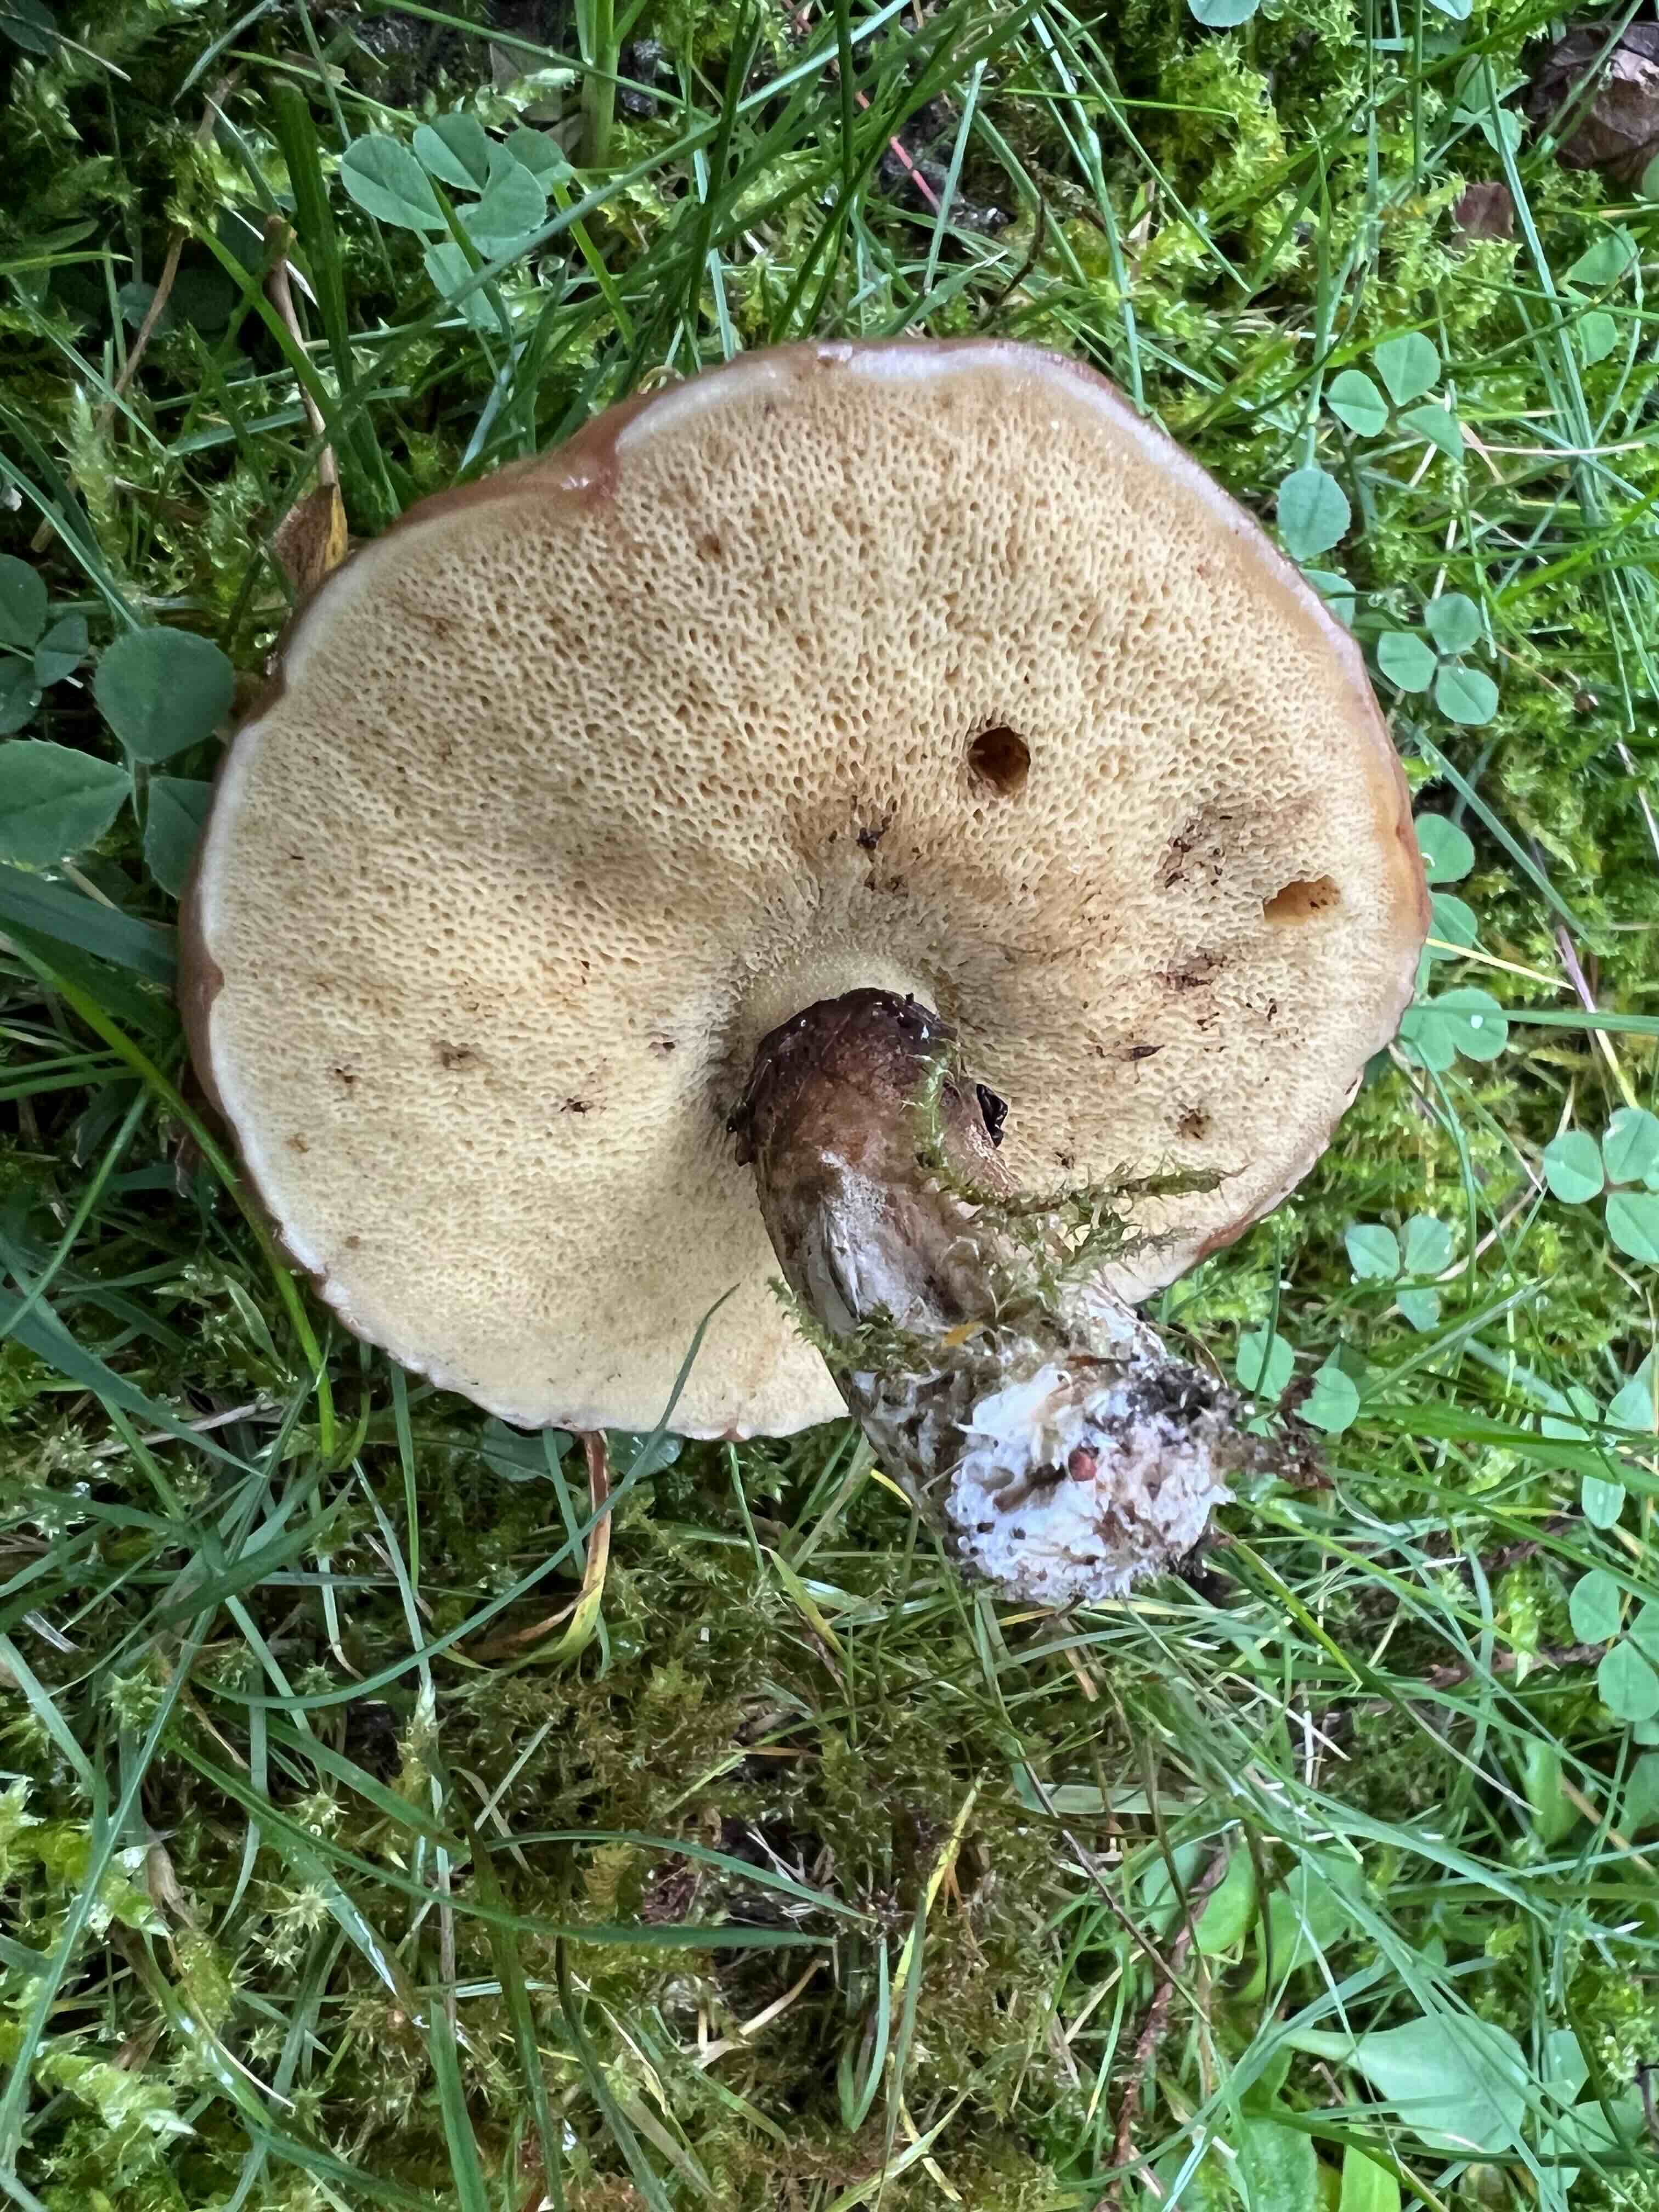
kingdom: Fungi
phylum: Basidiomycota
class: Agaricomycetes
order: Boletales
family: Suillaceae
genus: Suillus
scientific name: Suillus
